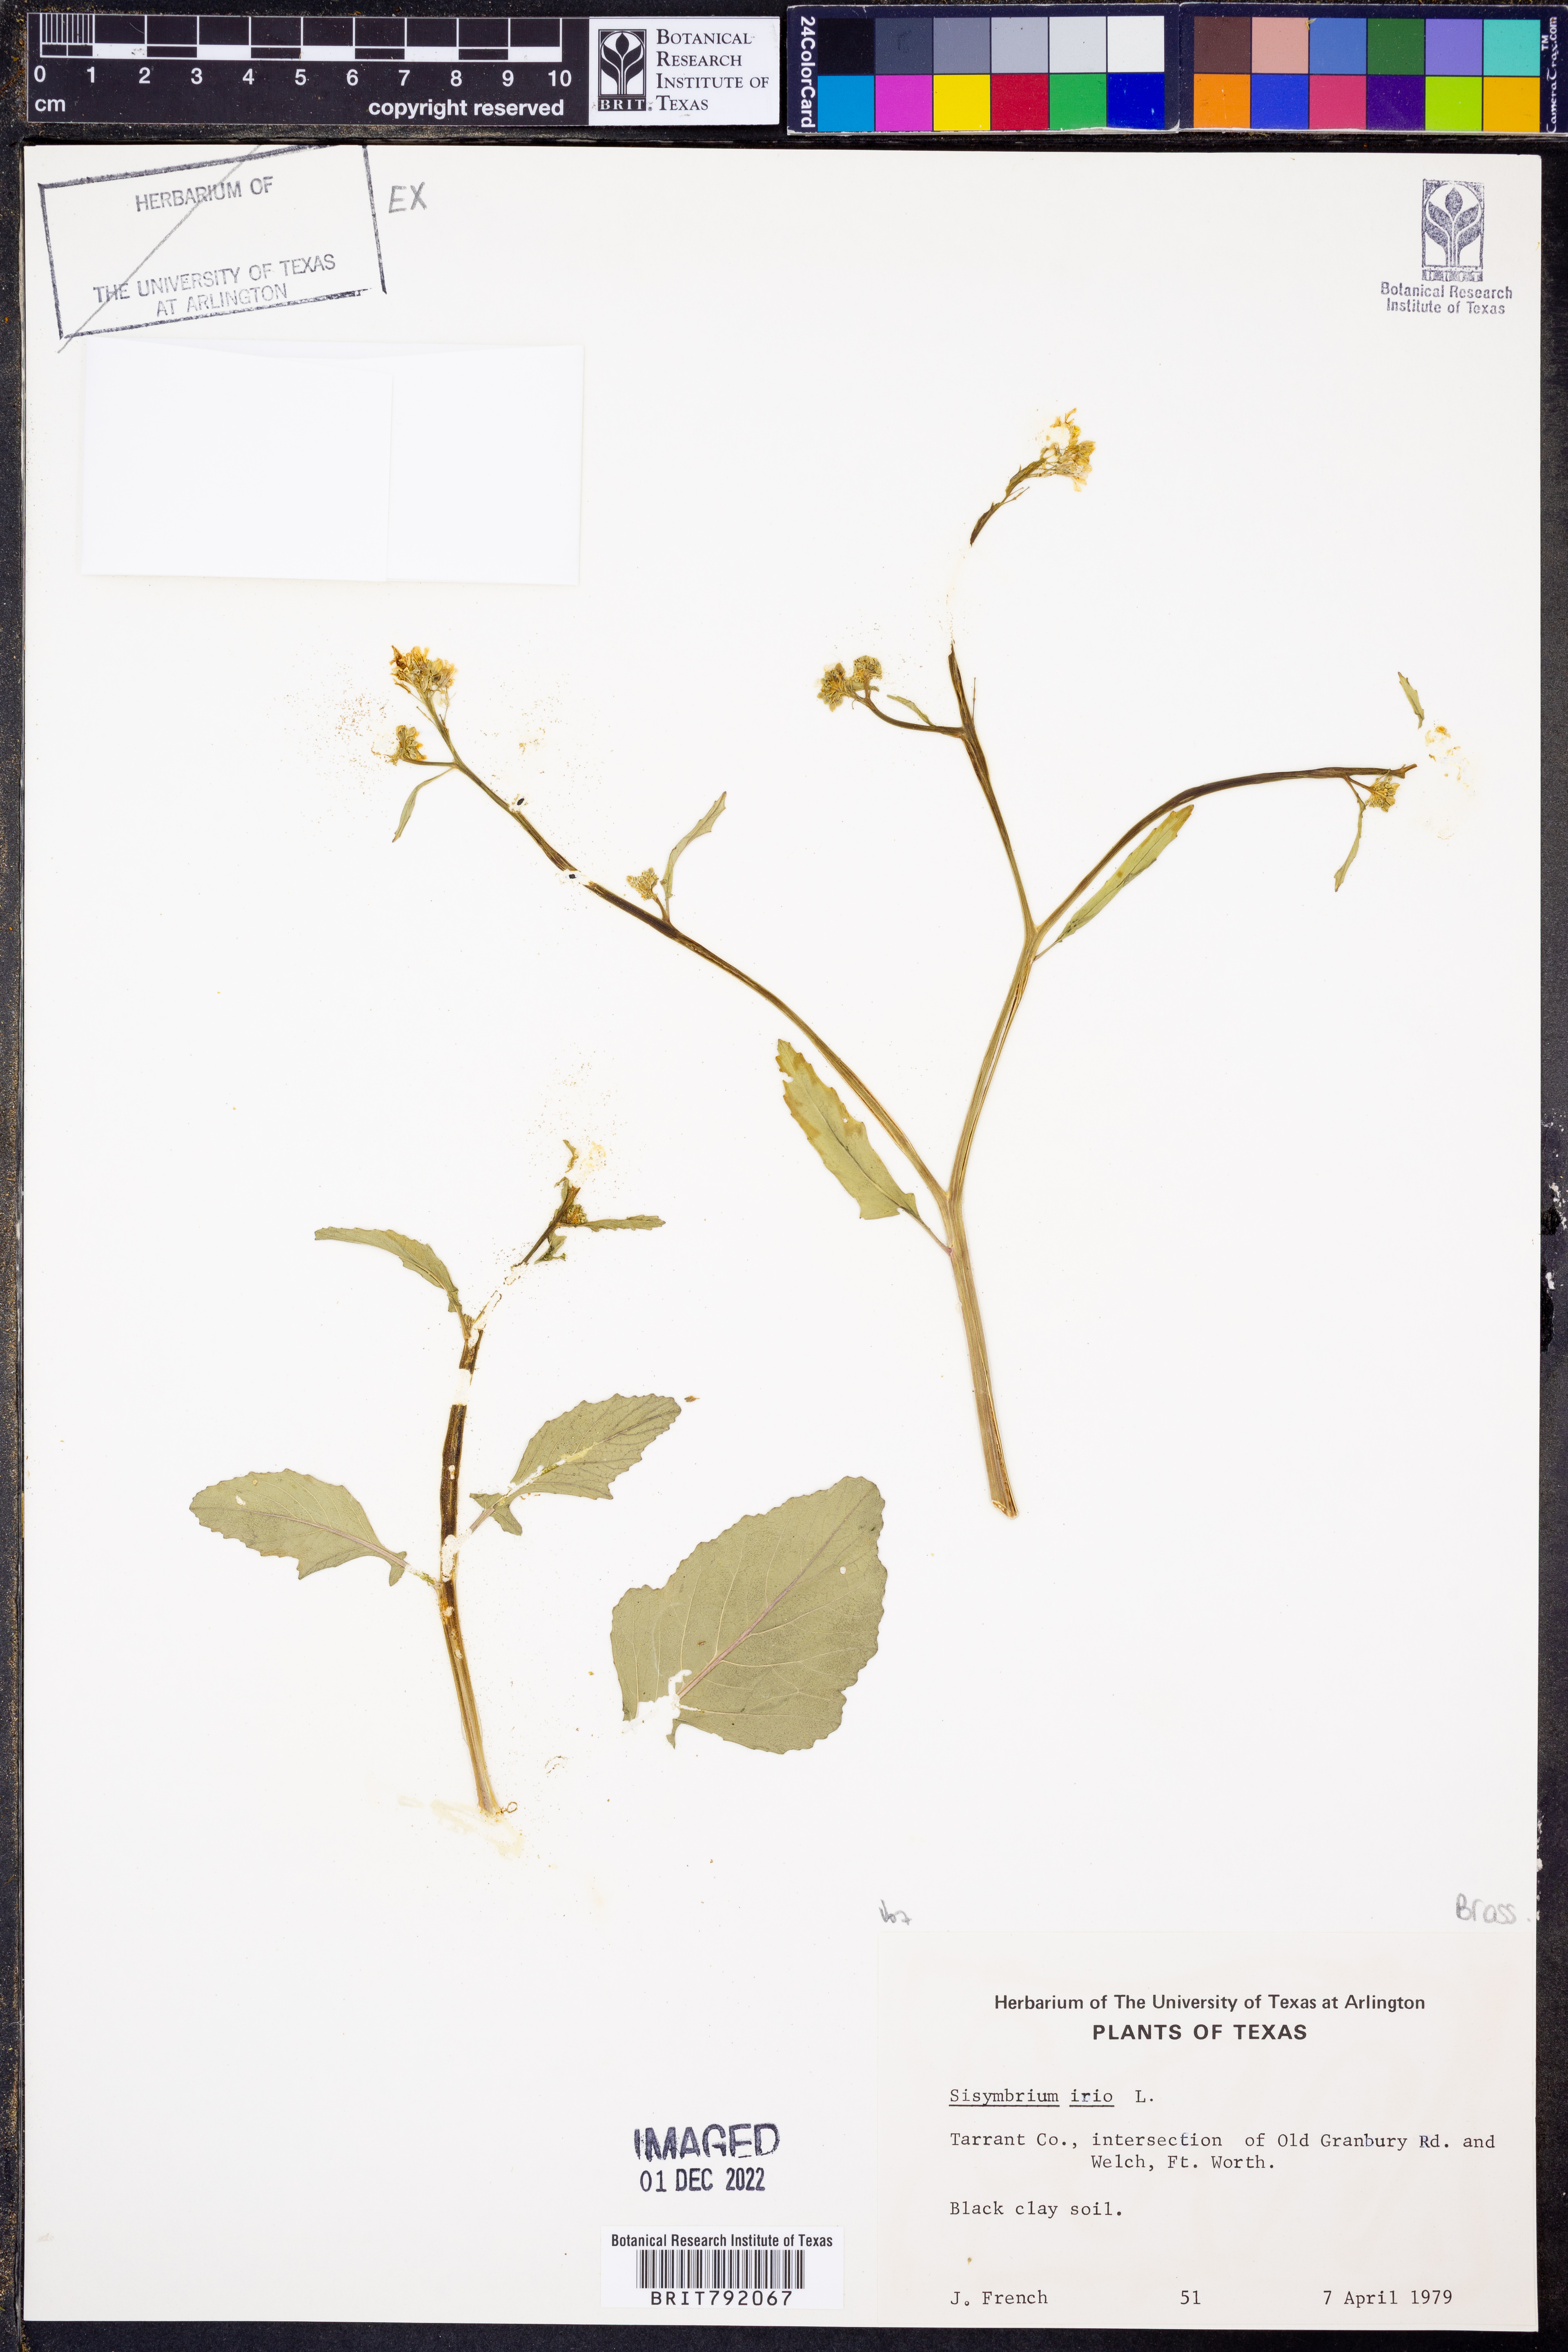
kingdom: Plantae
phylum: Tracheophyta
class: Magnoliopsida
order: Brassicales
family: Brassicaceae
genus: Sisymbrium
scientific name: Sisymbrium irio
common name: London rocket
